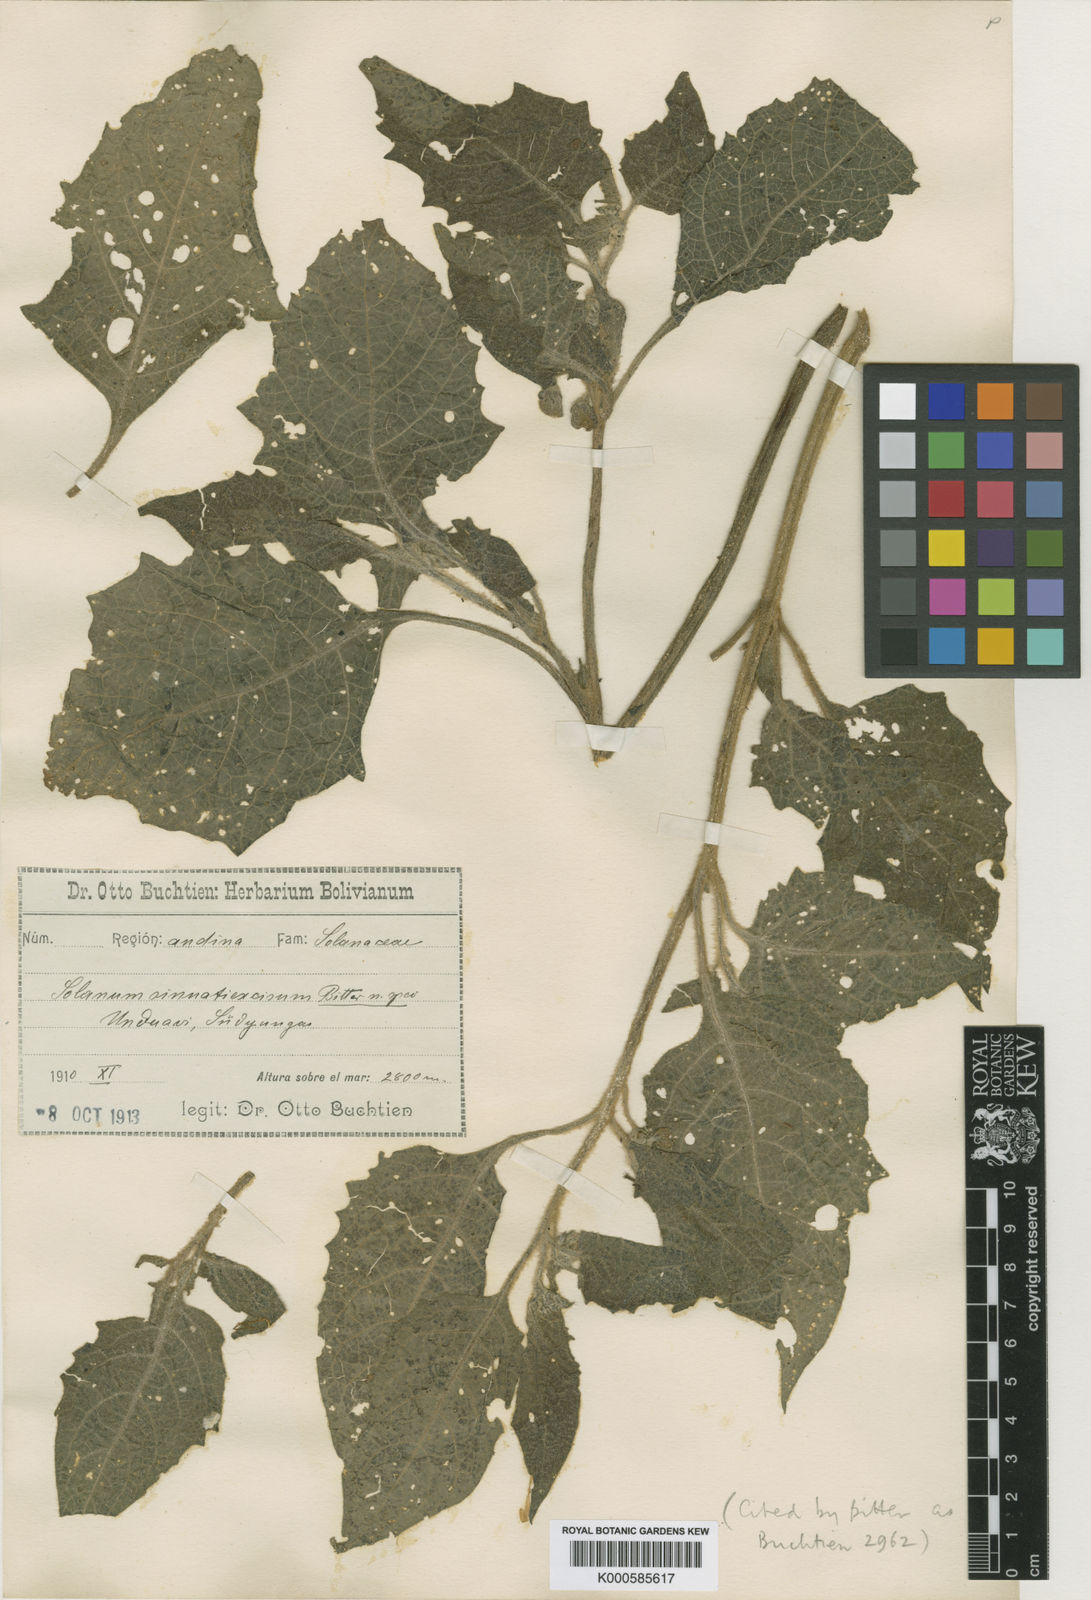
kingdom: Plantae
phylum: Tracheophyta
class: Magnoliopsida
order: Solanales
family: Solanaceae
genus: Solanum
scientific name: Solanum sinuatiexcisum
